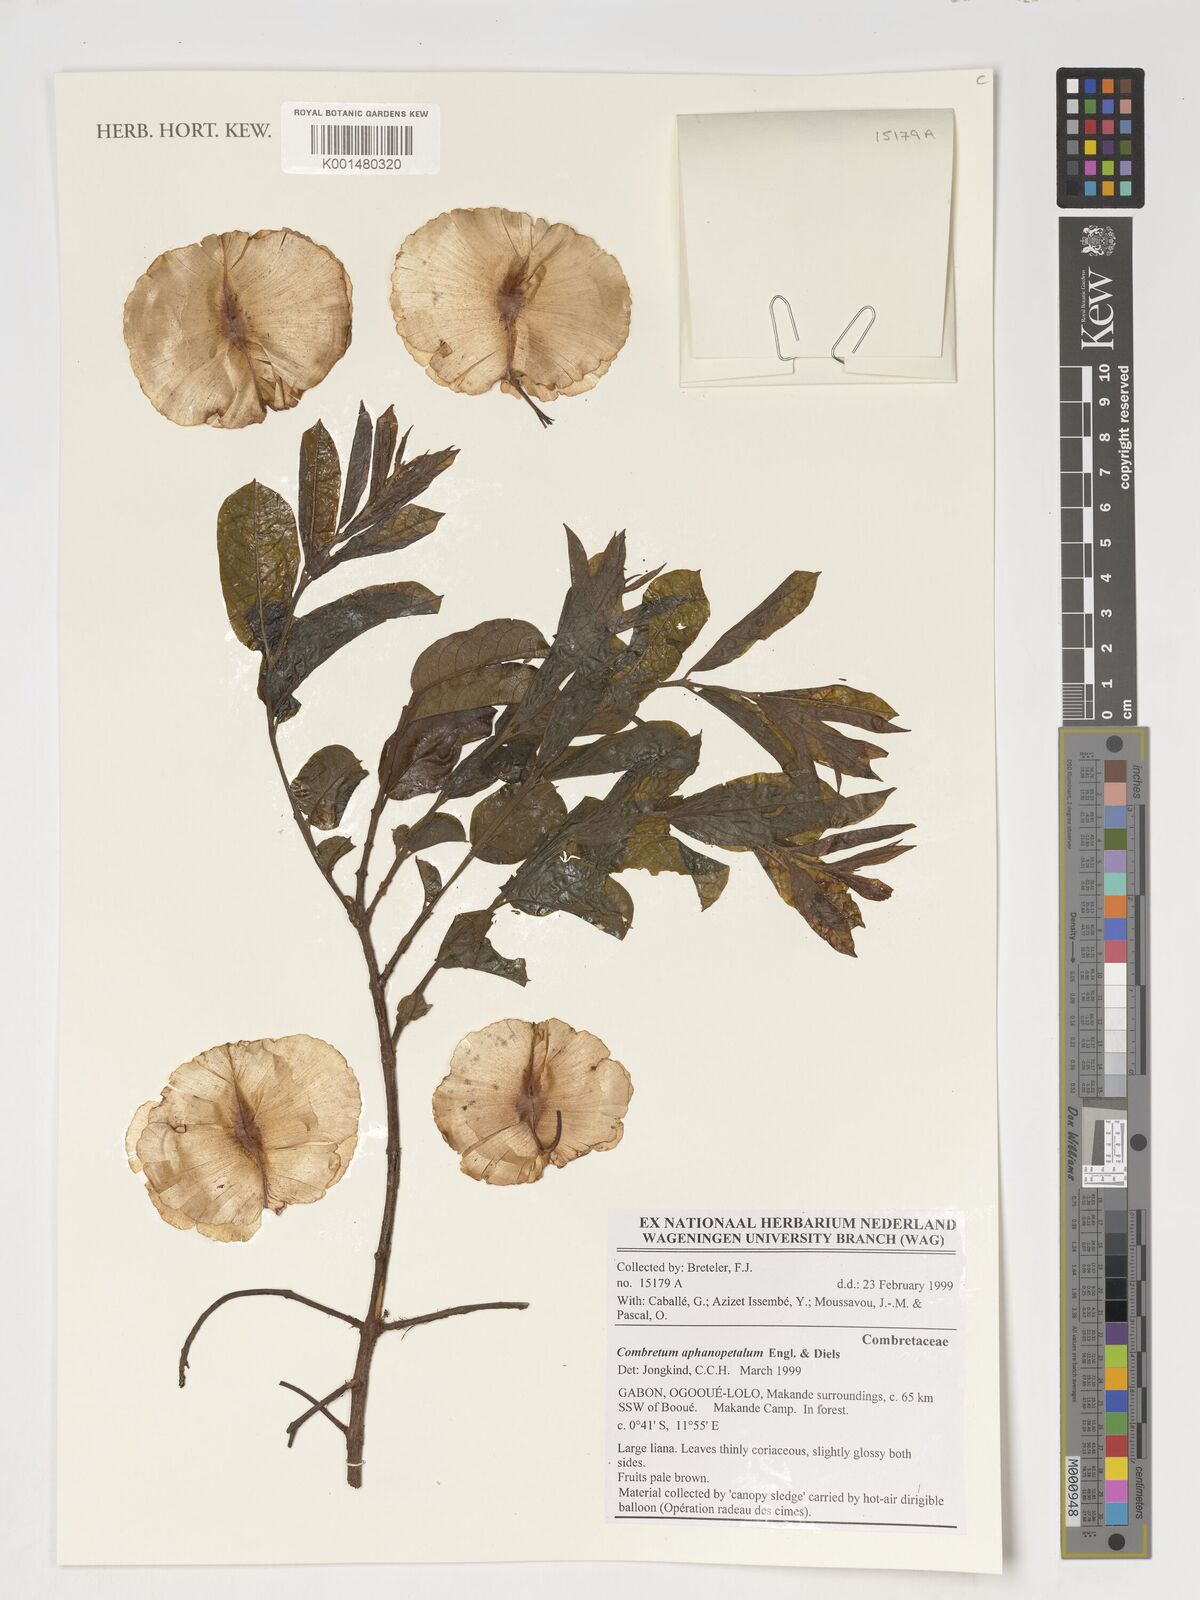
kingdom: Plantae
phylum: Tracheophyta
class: Magnoliopsida
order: Myrtales
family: Combretaceae
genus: Combretum
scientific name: Combretum aphanopetalum
